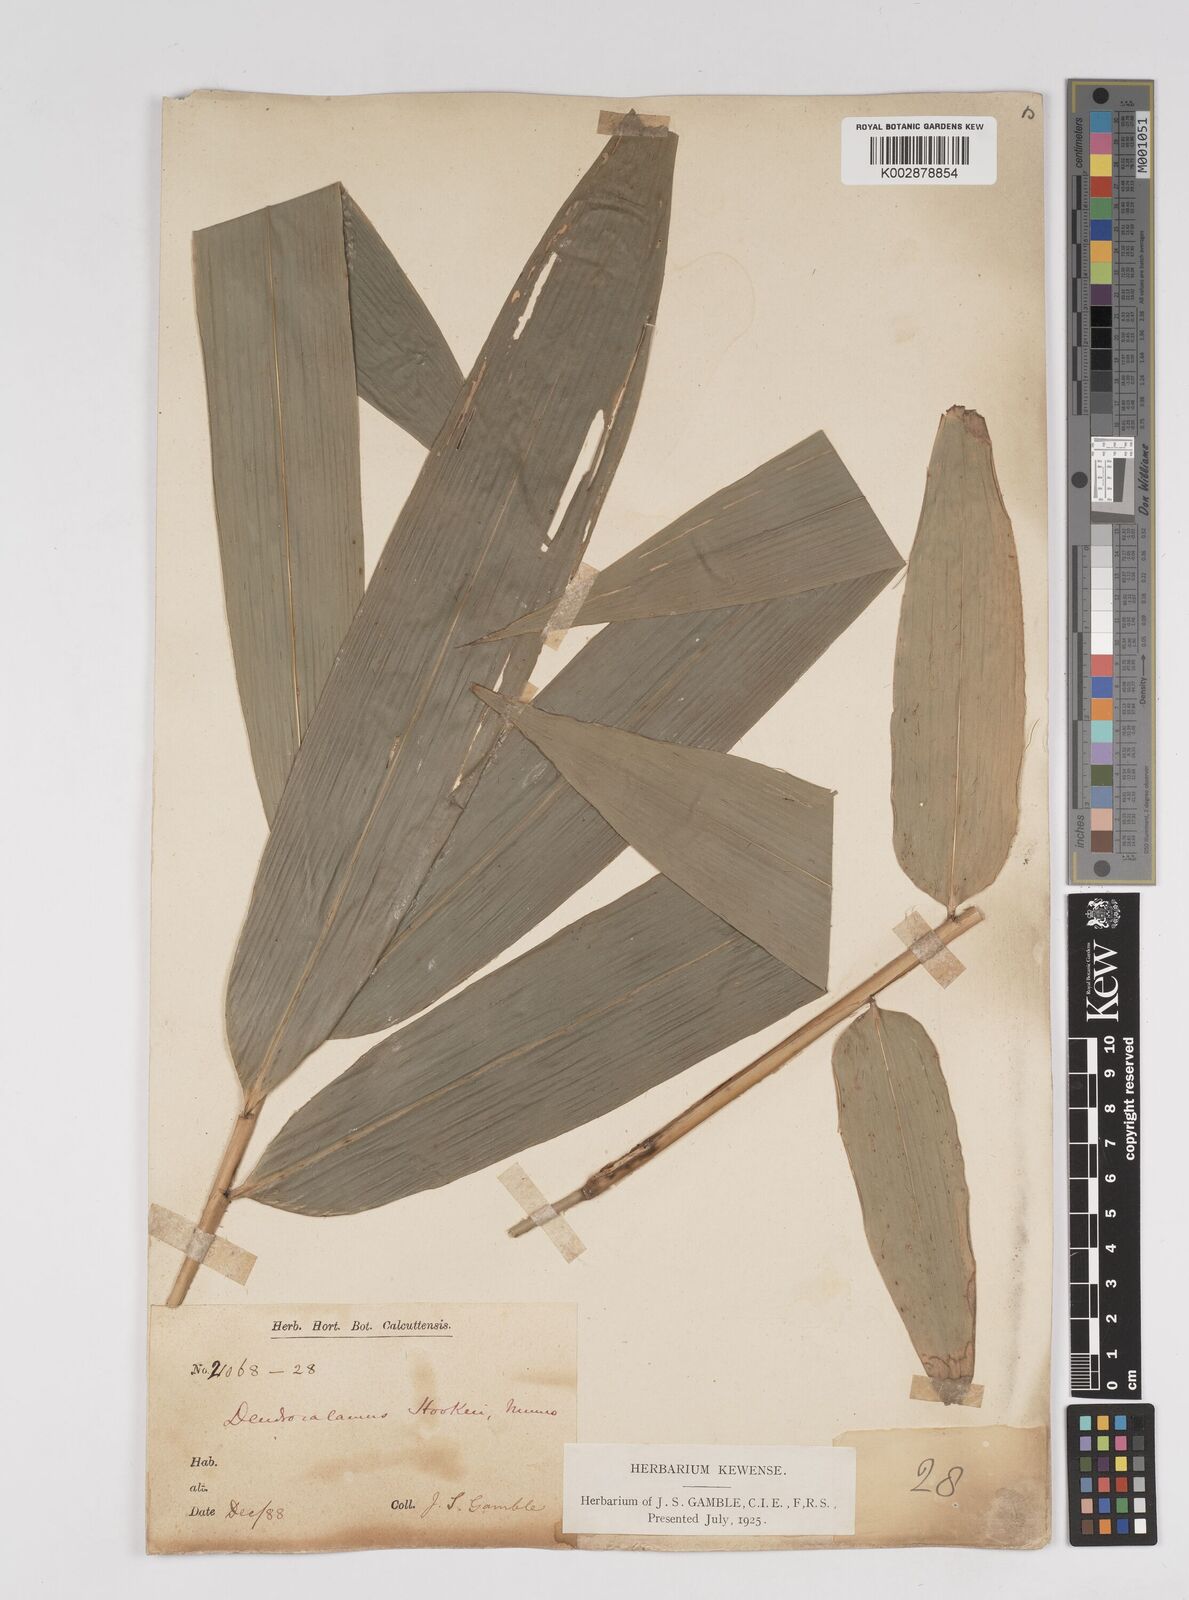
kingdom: Plantae
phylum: Tracheophyta
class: Liliopsida
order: Poales
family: Poaceae
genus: Dendrocalamus
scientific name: Dendrocalamus hookeri
